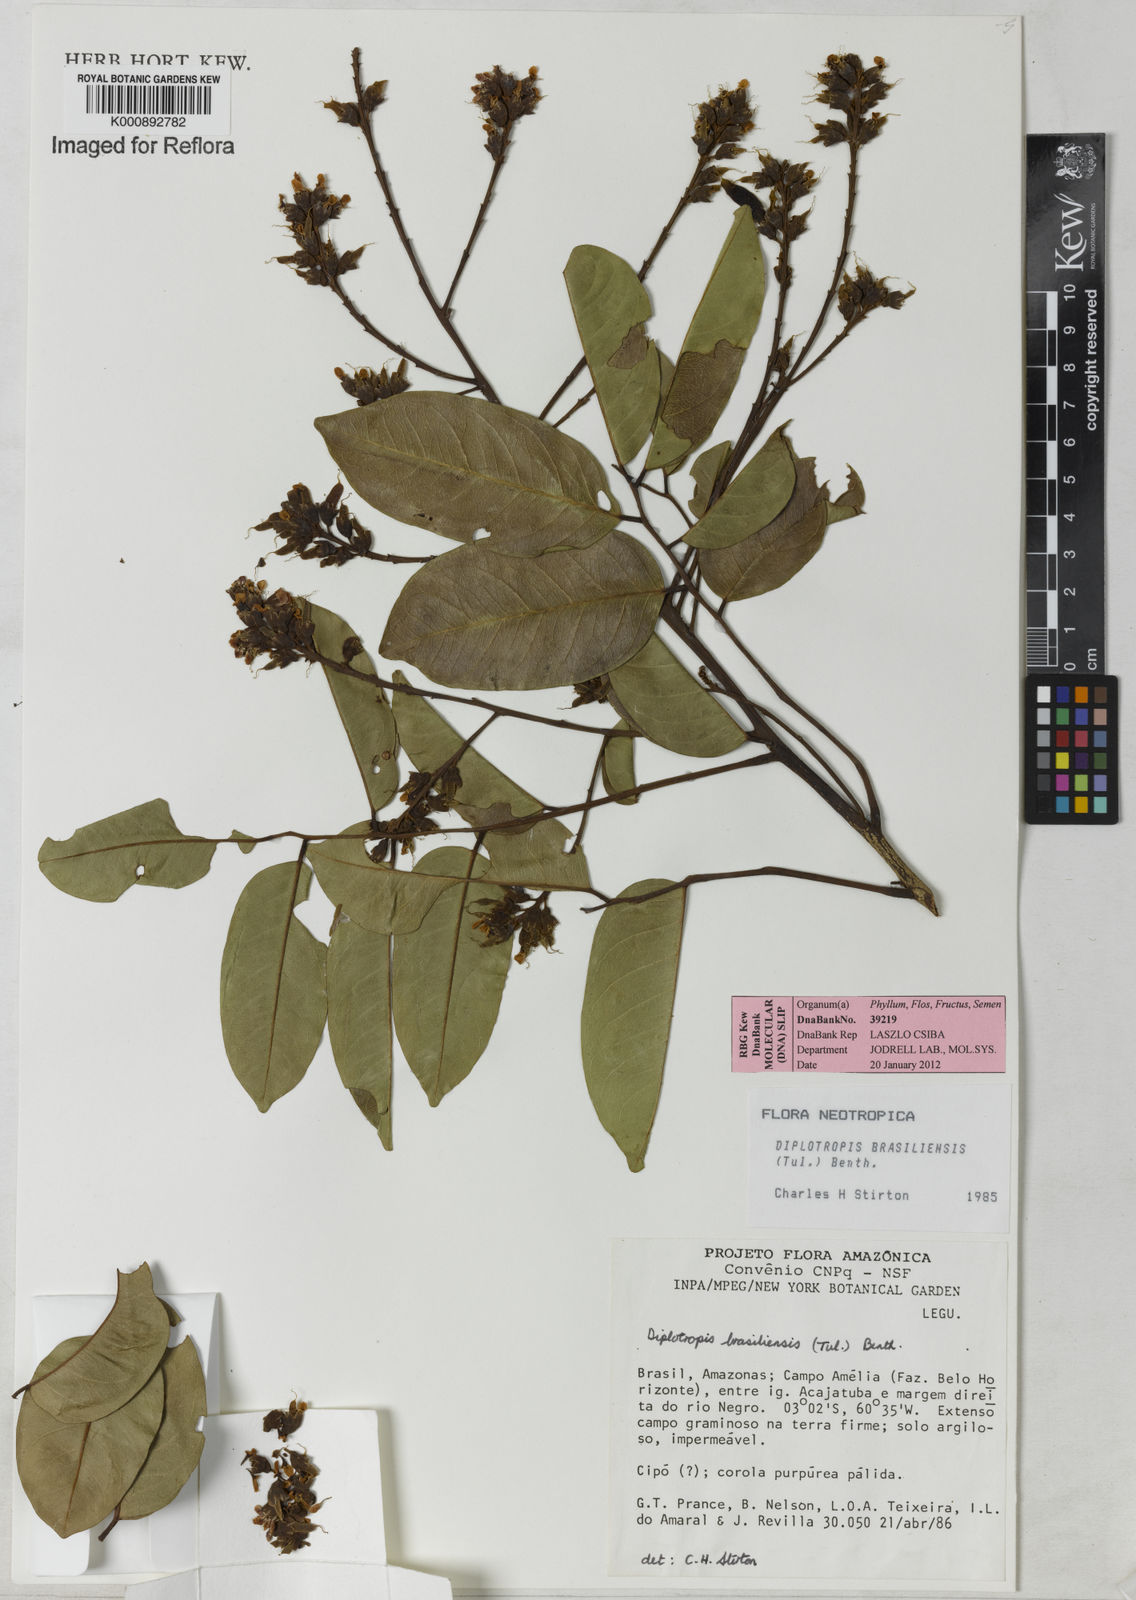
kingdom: Plantae
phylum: Tracheophyta
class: Magnoliopsida
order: Fabales
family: Fabaceae
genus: Diplotropis
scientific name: Diplotropis brasiliensis
